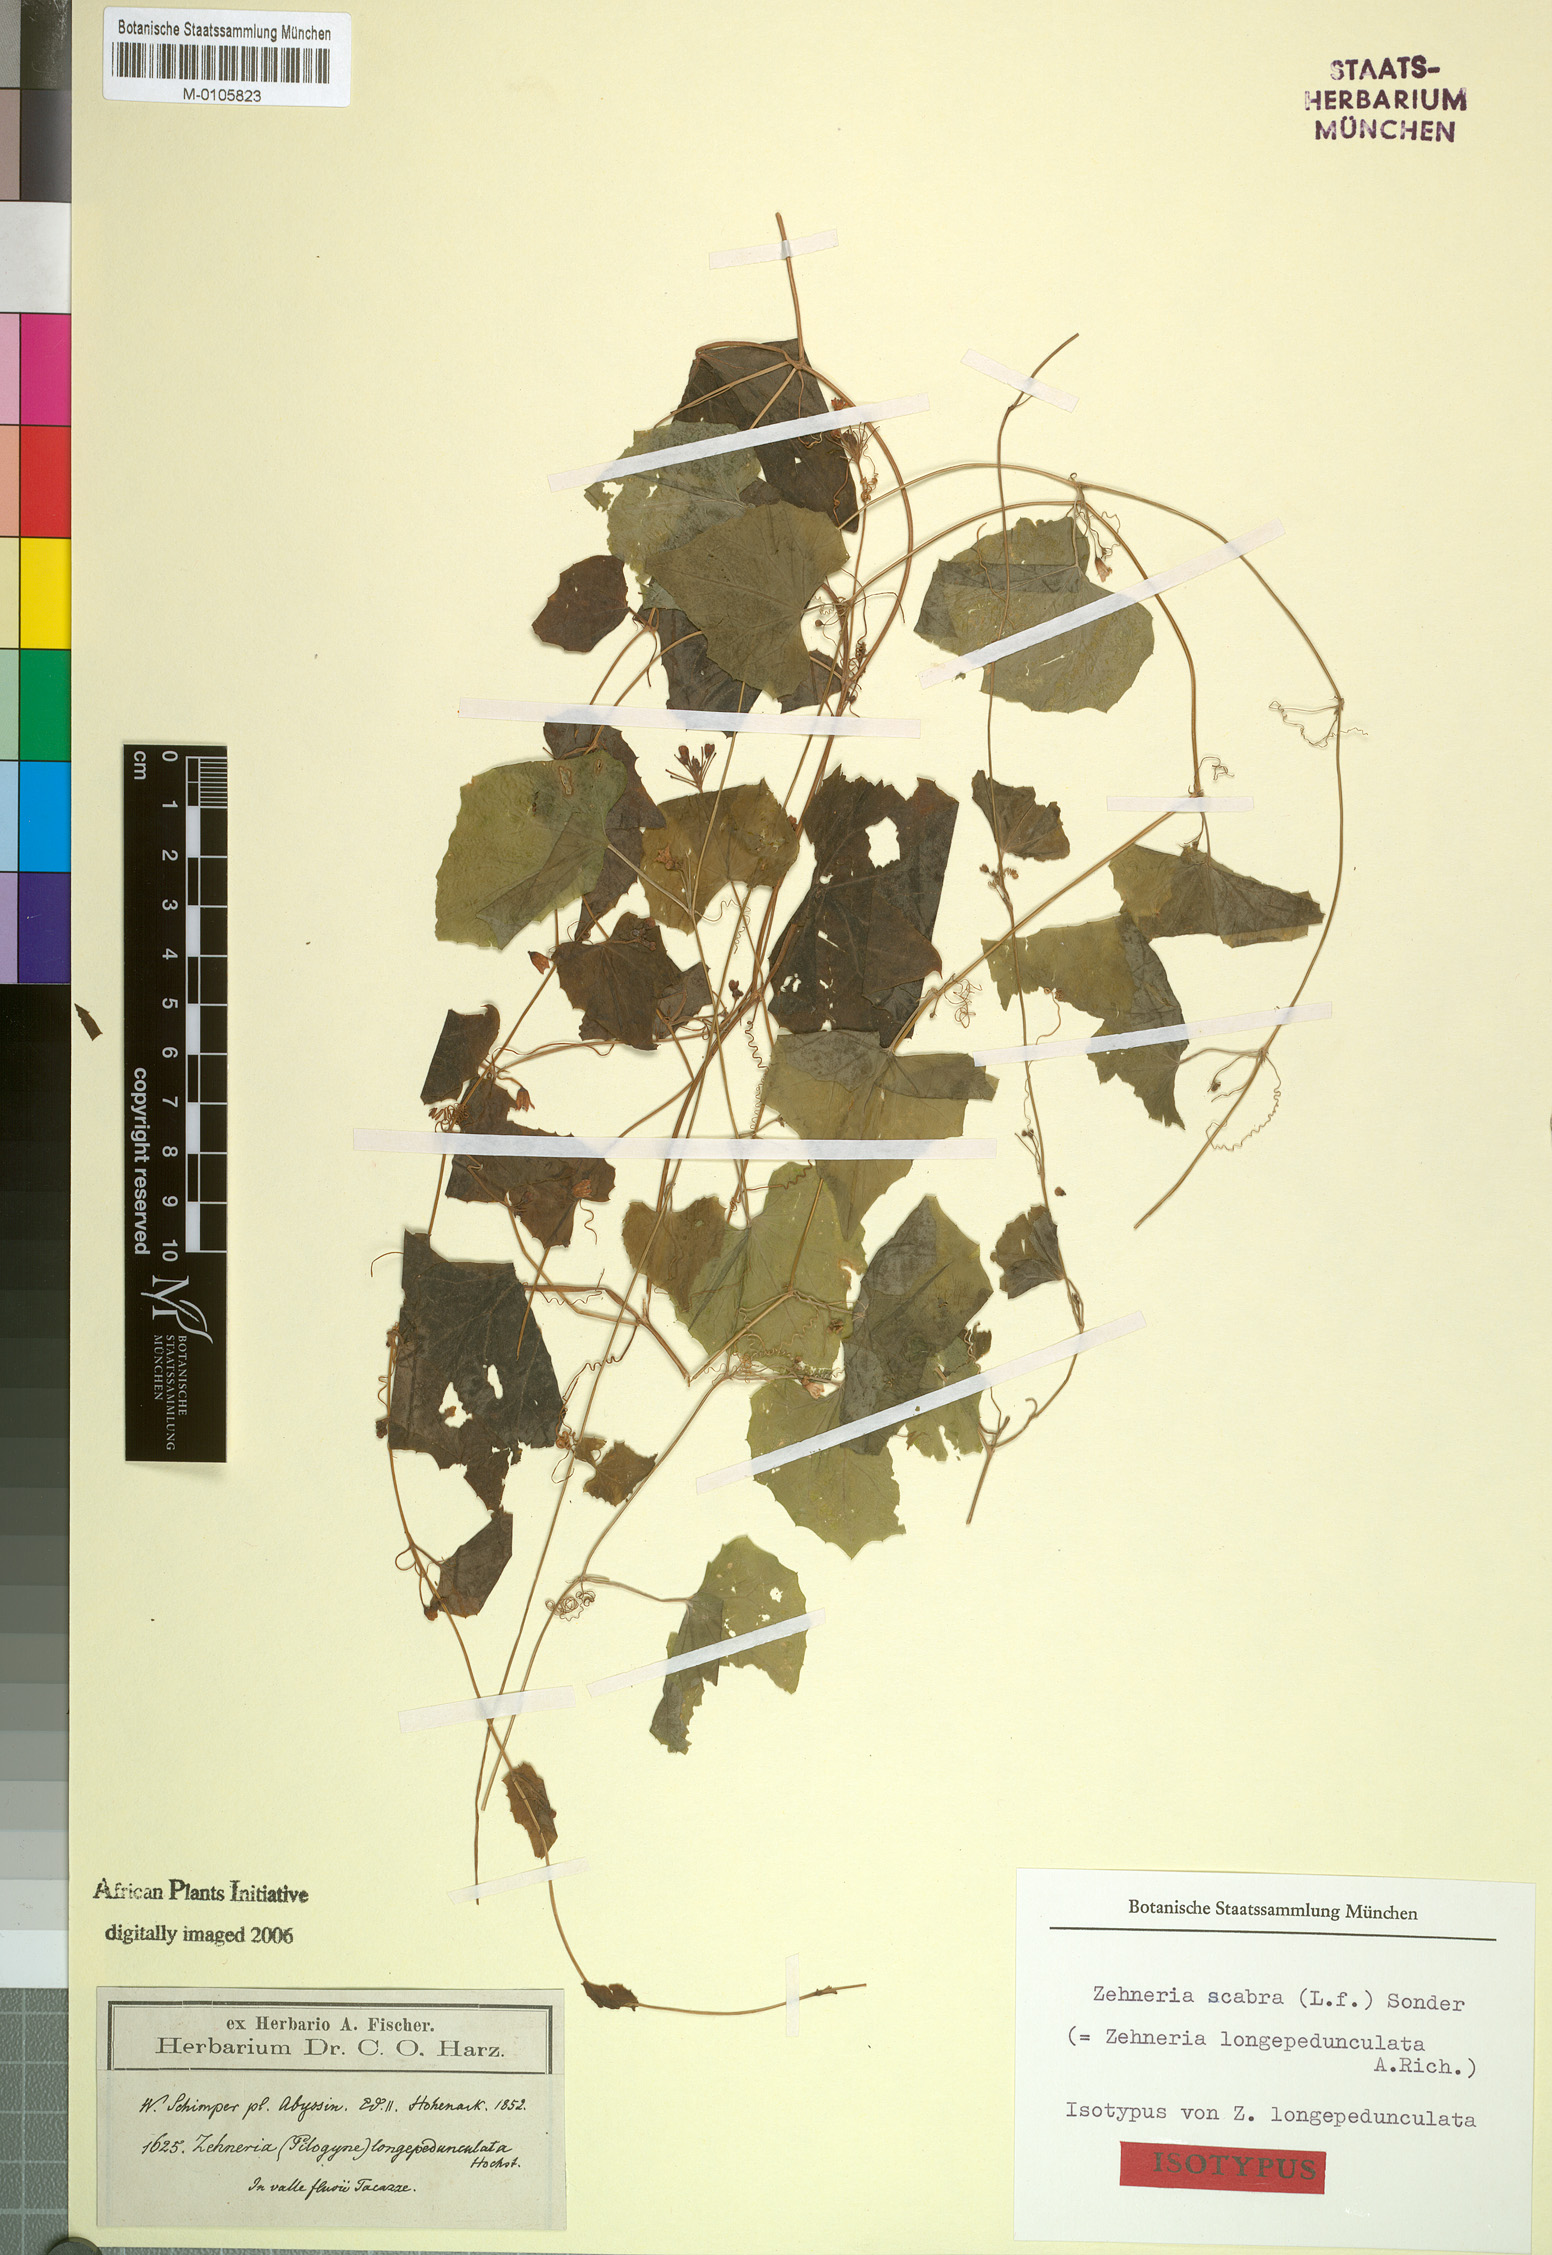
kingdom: Plantae
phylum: Tracheophyta
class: Magnoliopsida
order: Cucurbitales
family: Cucurbitaceae
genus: Zehneria
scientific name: Zehneria scabra
